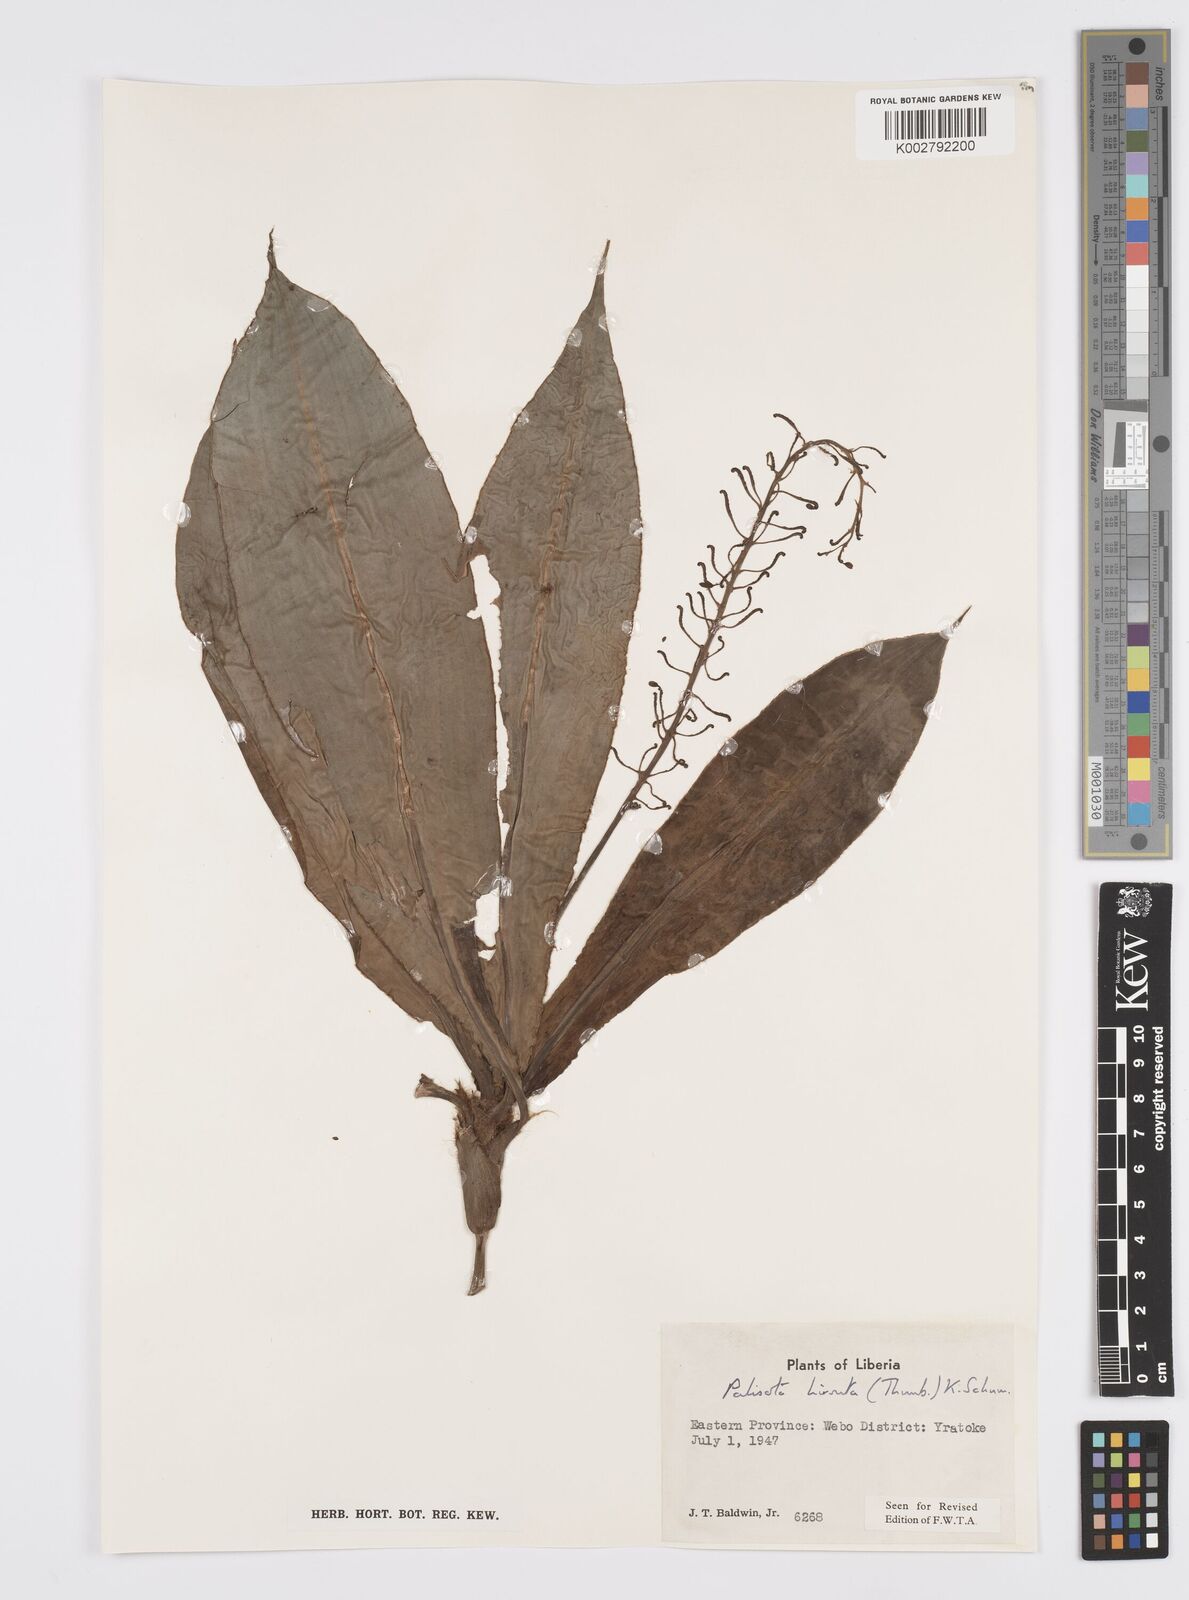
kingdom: Plantae
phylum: Tracheophyta
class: Liliopsida
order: Commelinales
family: Commelinaceae
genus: Palisota
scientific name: Palisota hirsuta
